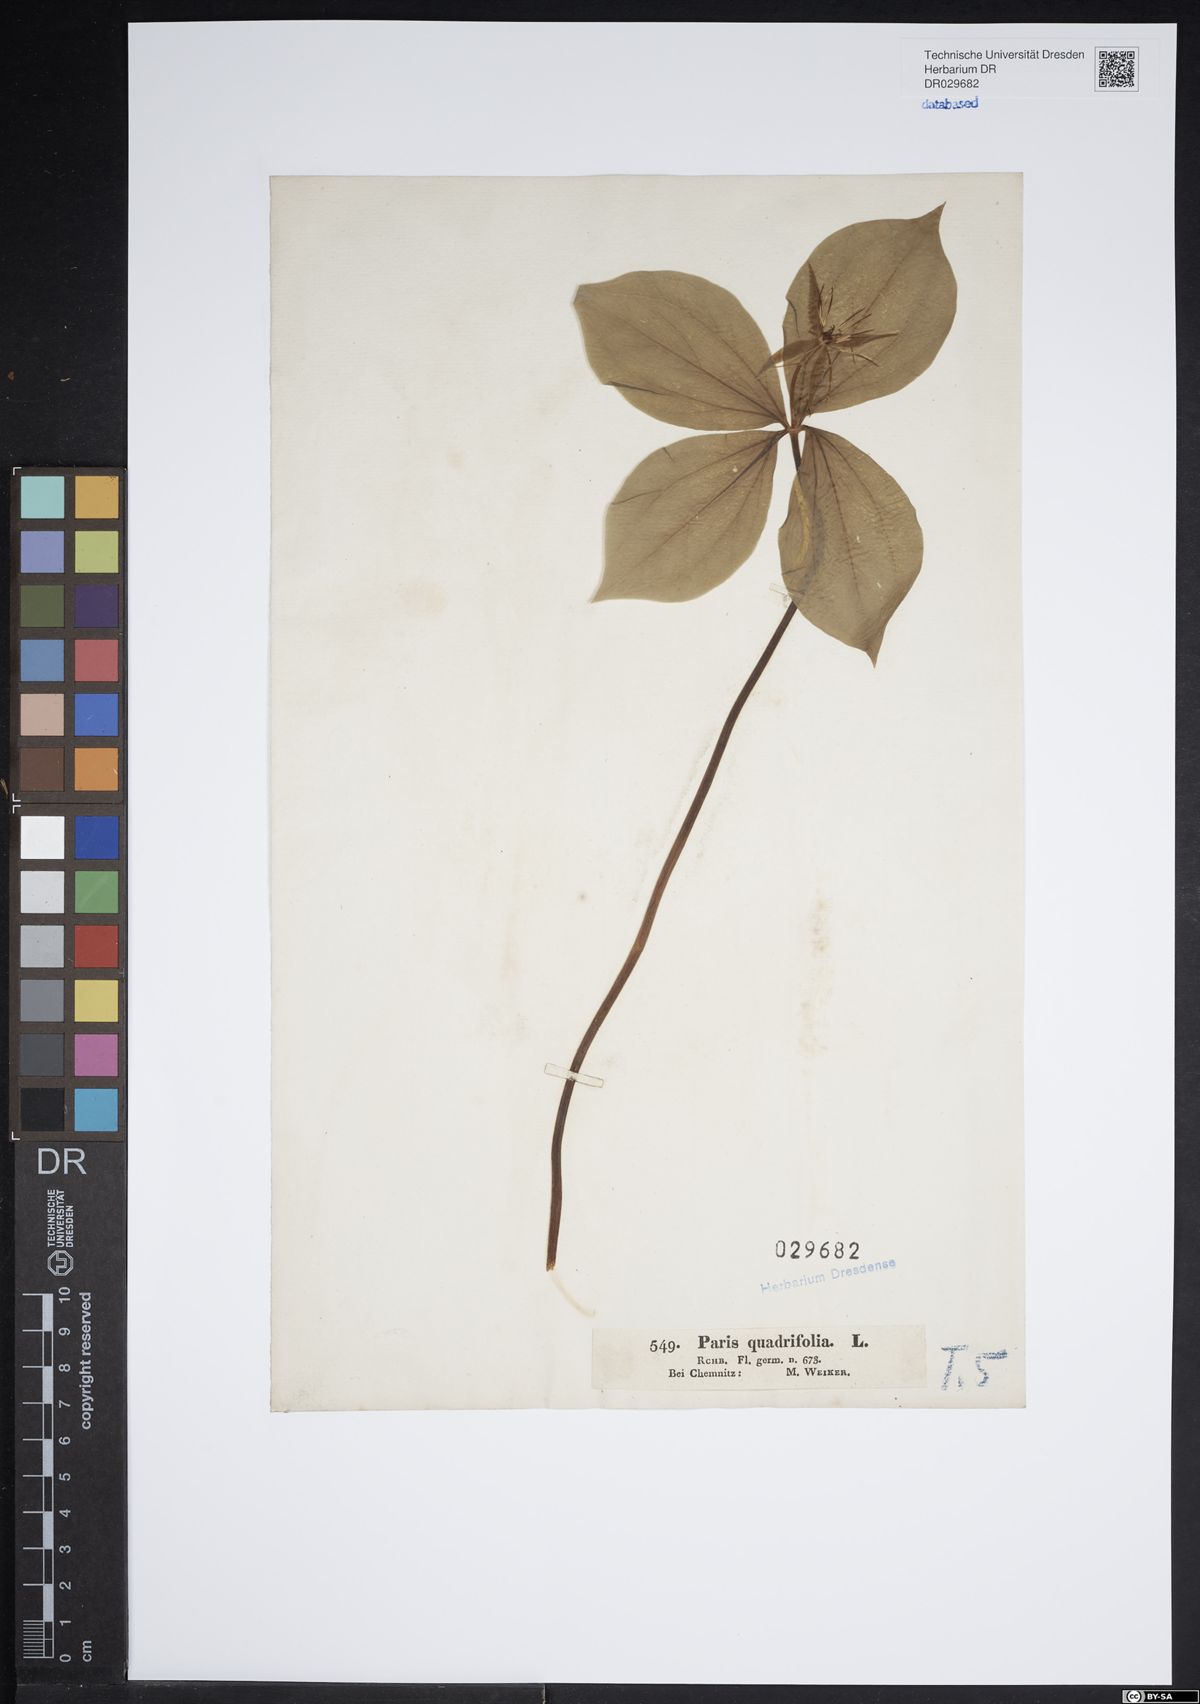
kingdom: Plantae
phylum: Tracheophyta
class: Liliopsida
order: Liliales
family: Melanthiaceae
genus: Paris
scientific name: Paris quadrifolia
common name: Herb-paris
